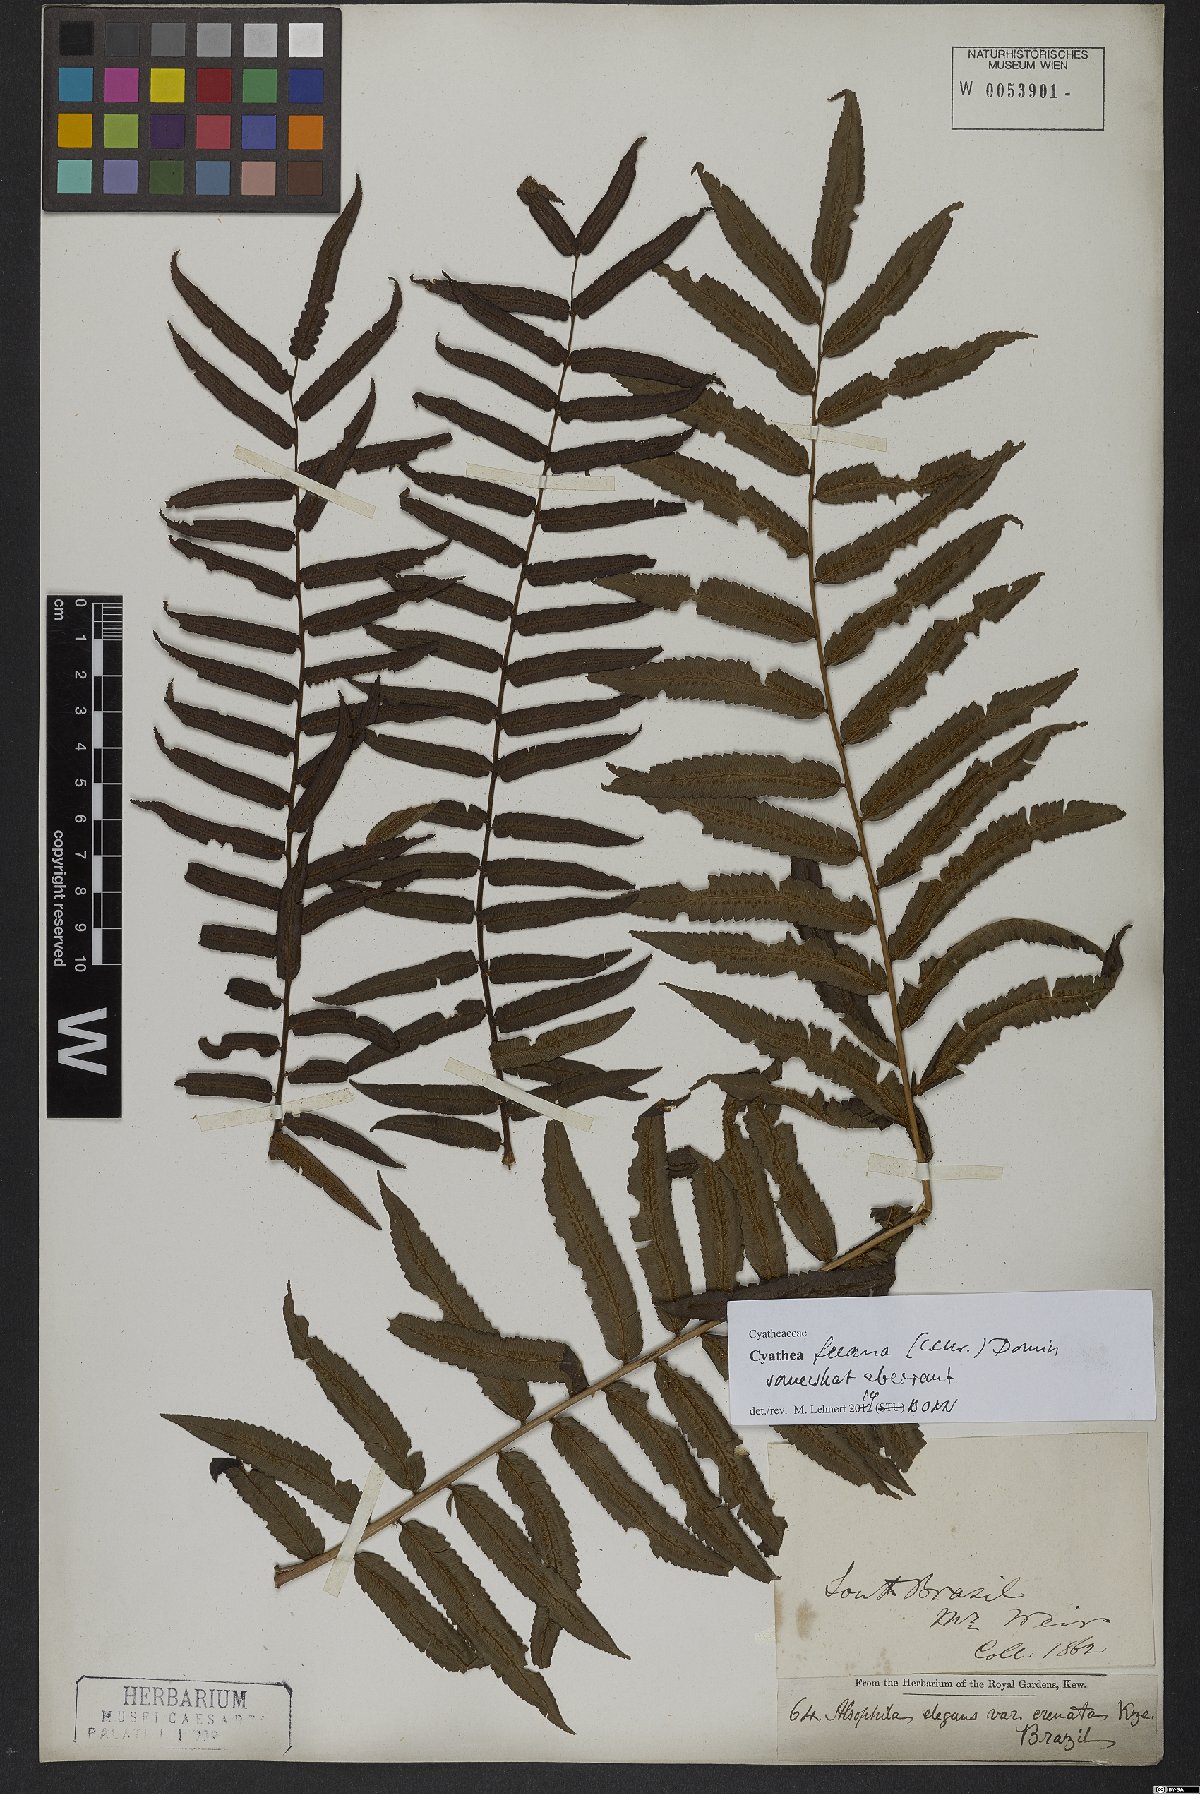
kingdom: Plantae
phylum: Tracheophyta
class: Polypodiopsida
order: Cyatheales
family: Cyatheaceae
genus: Cyathea
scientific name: Cyathea feeana
